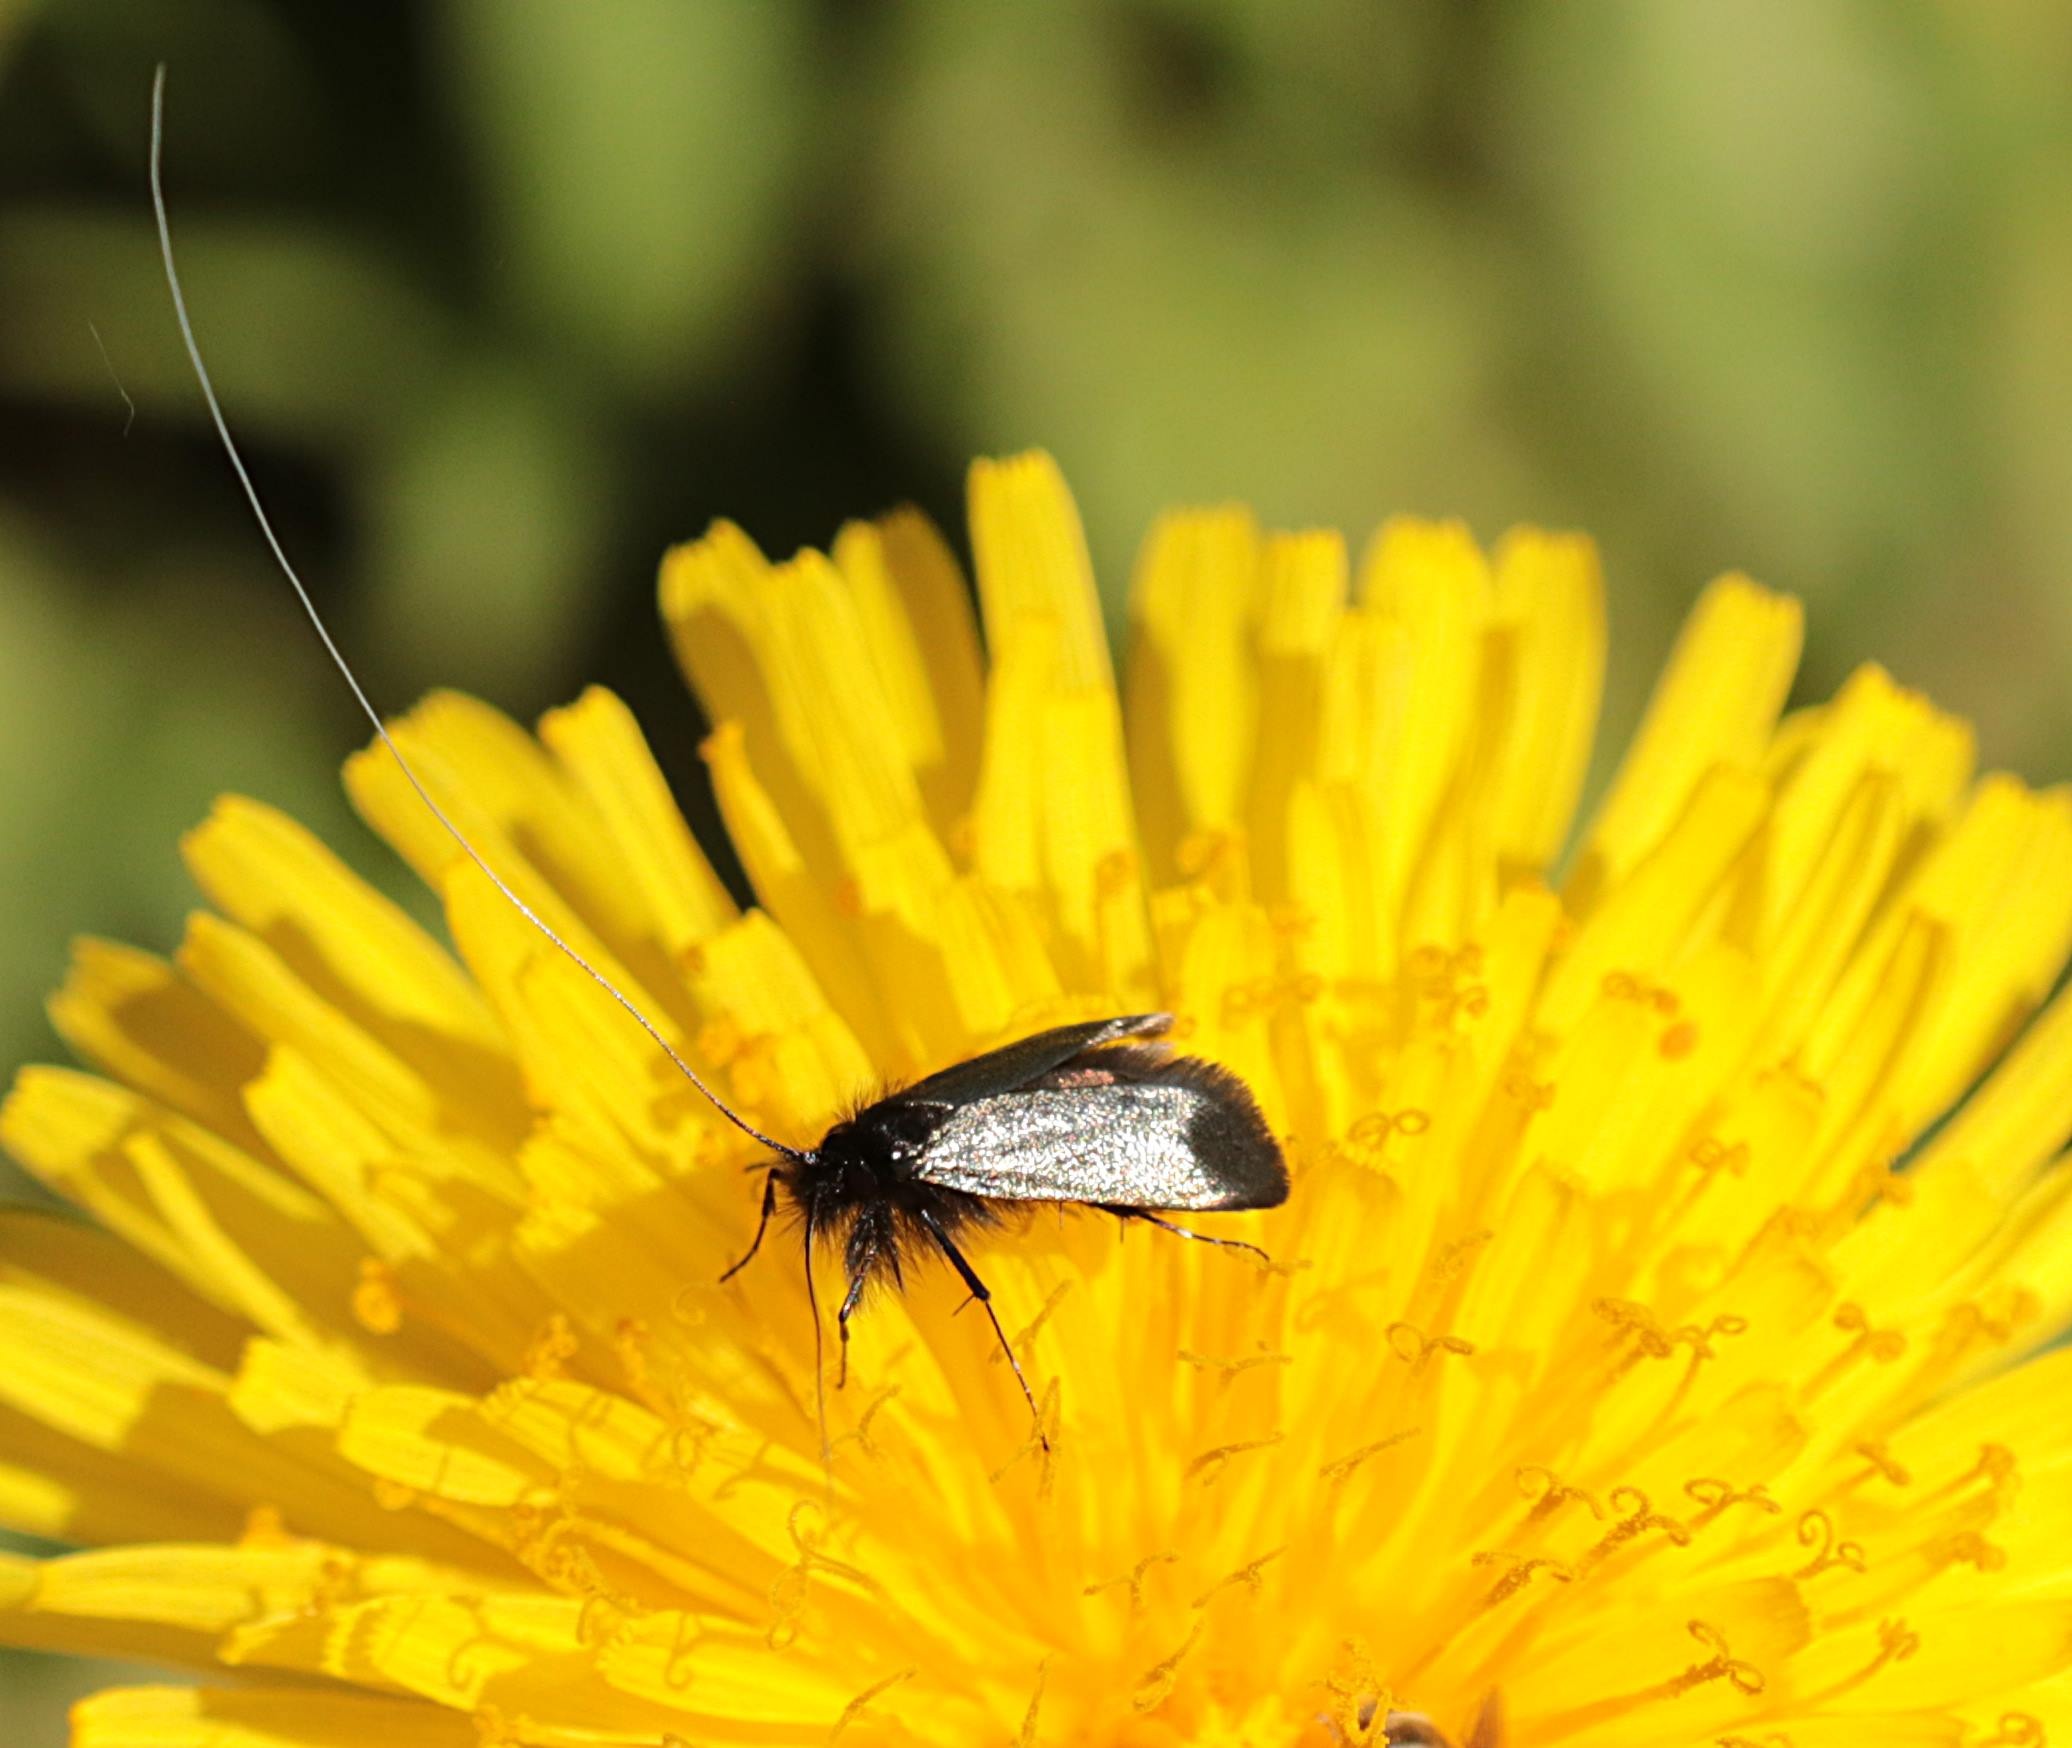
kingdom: Animalia
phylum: Arthropoda
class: Insecta
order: Lepidoptera
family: Adelidae
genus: Adela
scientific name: Adela viridella
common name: Egelanghornsmøl
